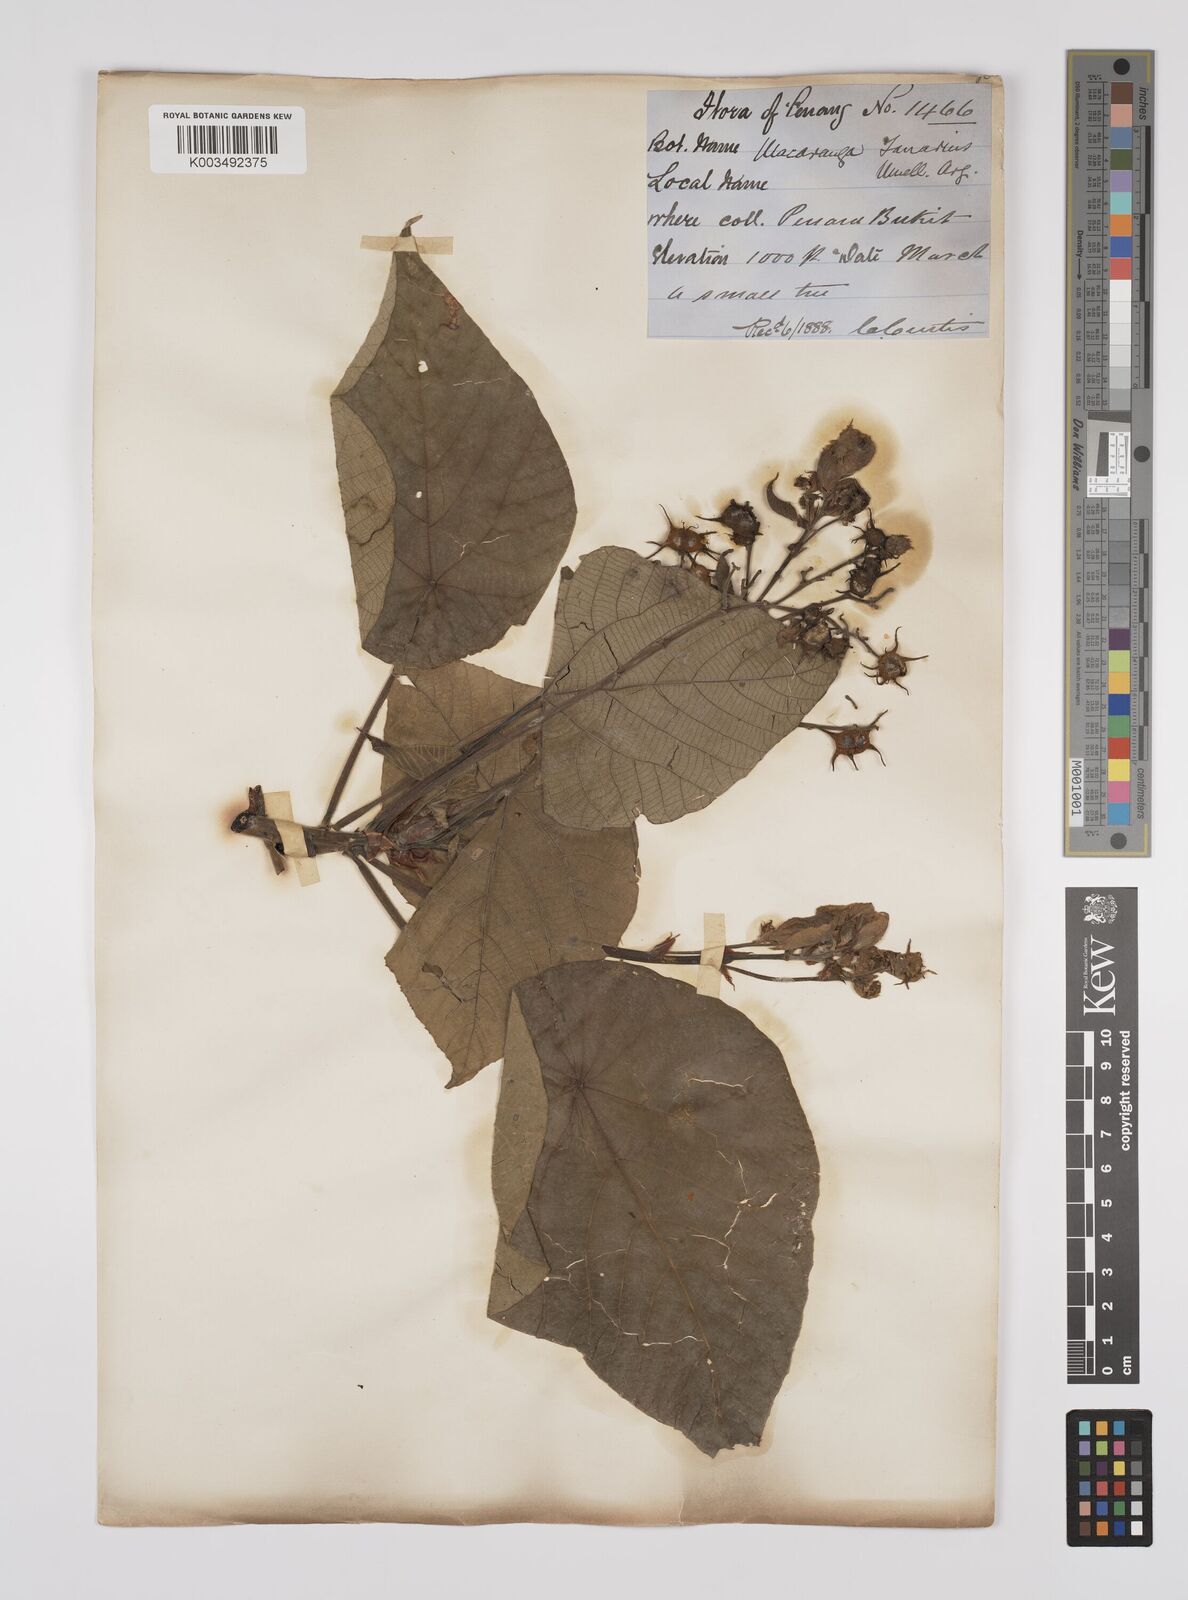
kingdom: Plantae
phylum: Tracheophyta
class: Magnoliopsida
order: Malpighiales
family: Euphorbiaceae
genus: Macaranga
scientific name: Macaranga tanarius
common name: Parasol leaf tree
